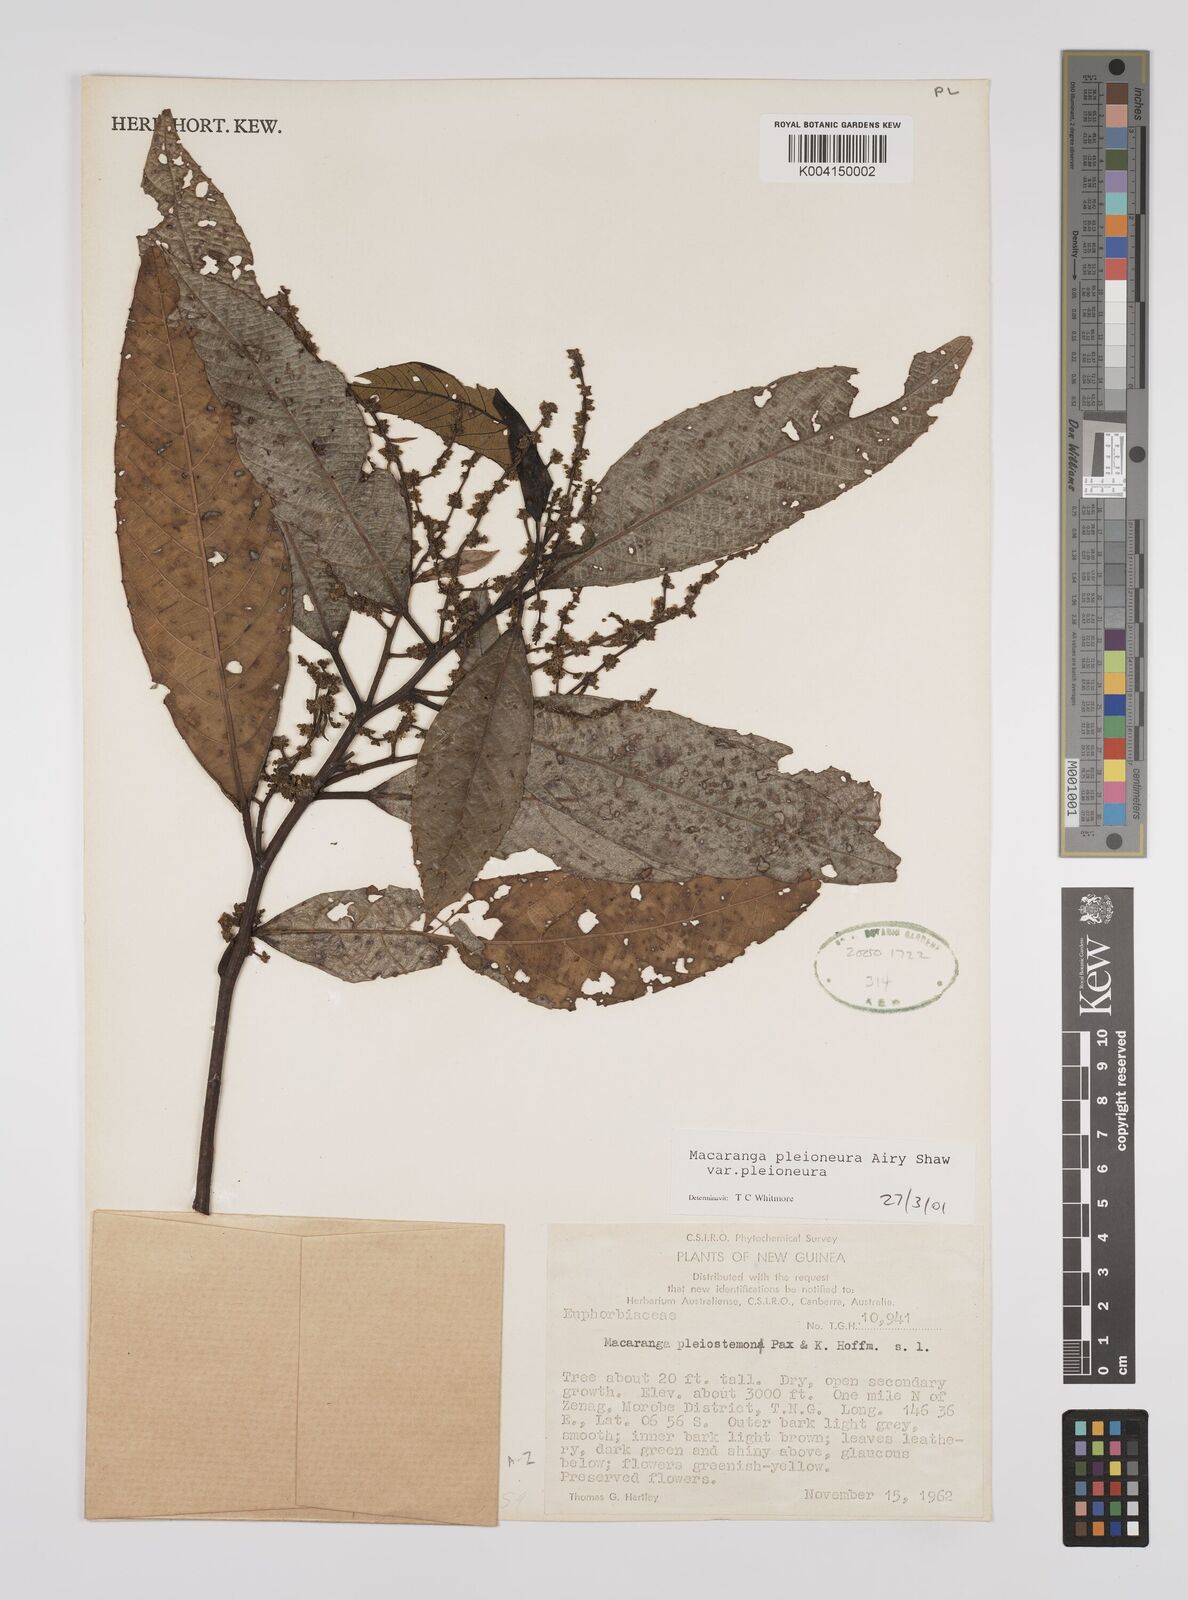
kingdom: Plantae
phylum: Tracheophyta
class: Magnoliopsida
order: Malpighiales
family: Euphorbiaceae
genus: Macaranga
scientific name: Macaranga pleioneura
